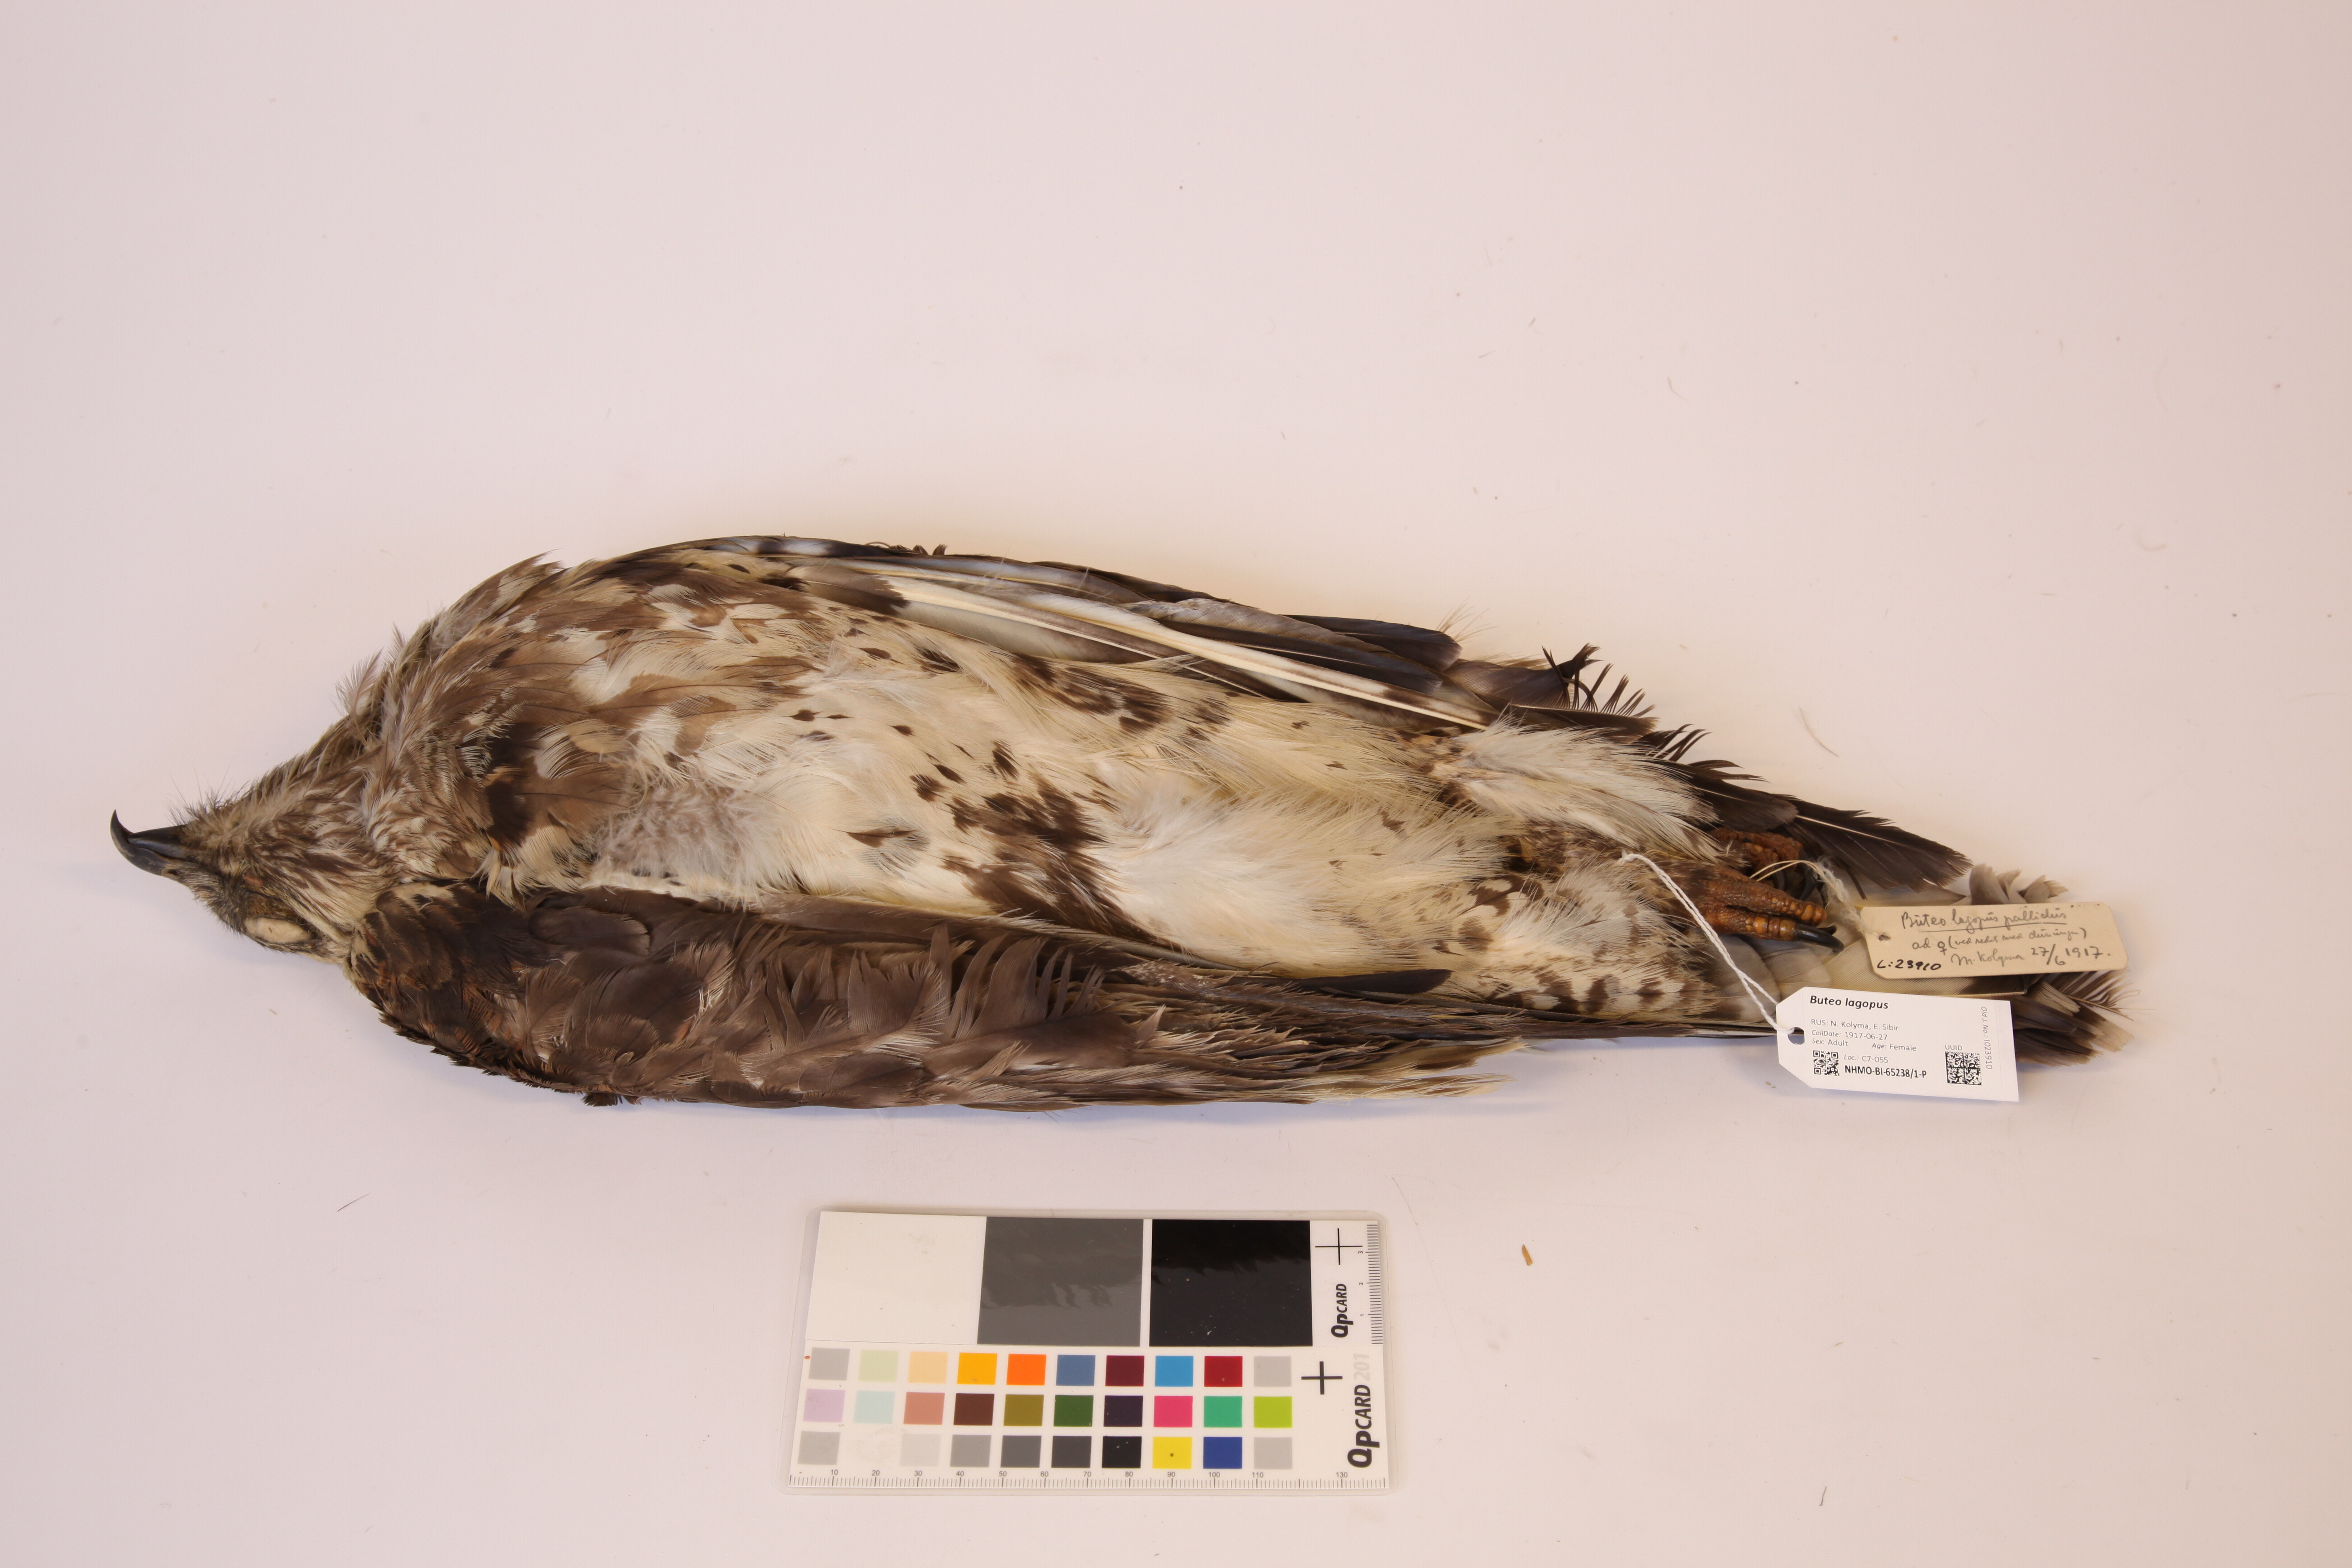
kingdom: Animalia
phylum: Chordata
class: Aves
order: Accipitriformes
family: Accipitridae
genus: Buteo
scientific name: Buteo lagopus
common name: Rough-legged buzzard
